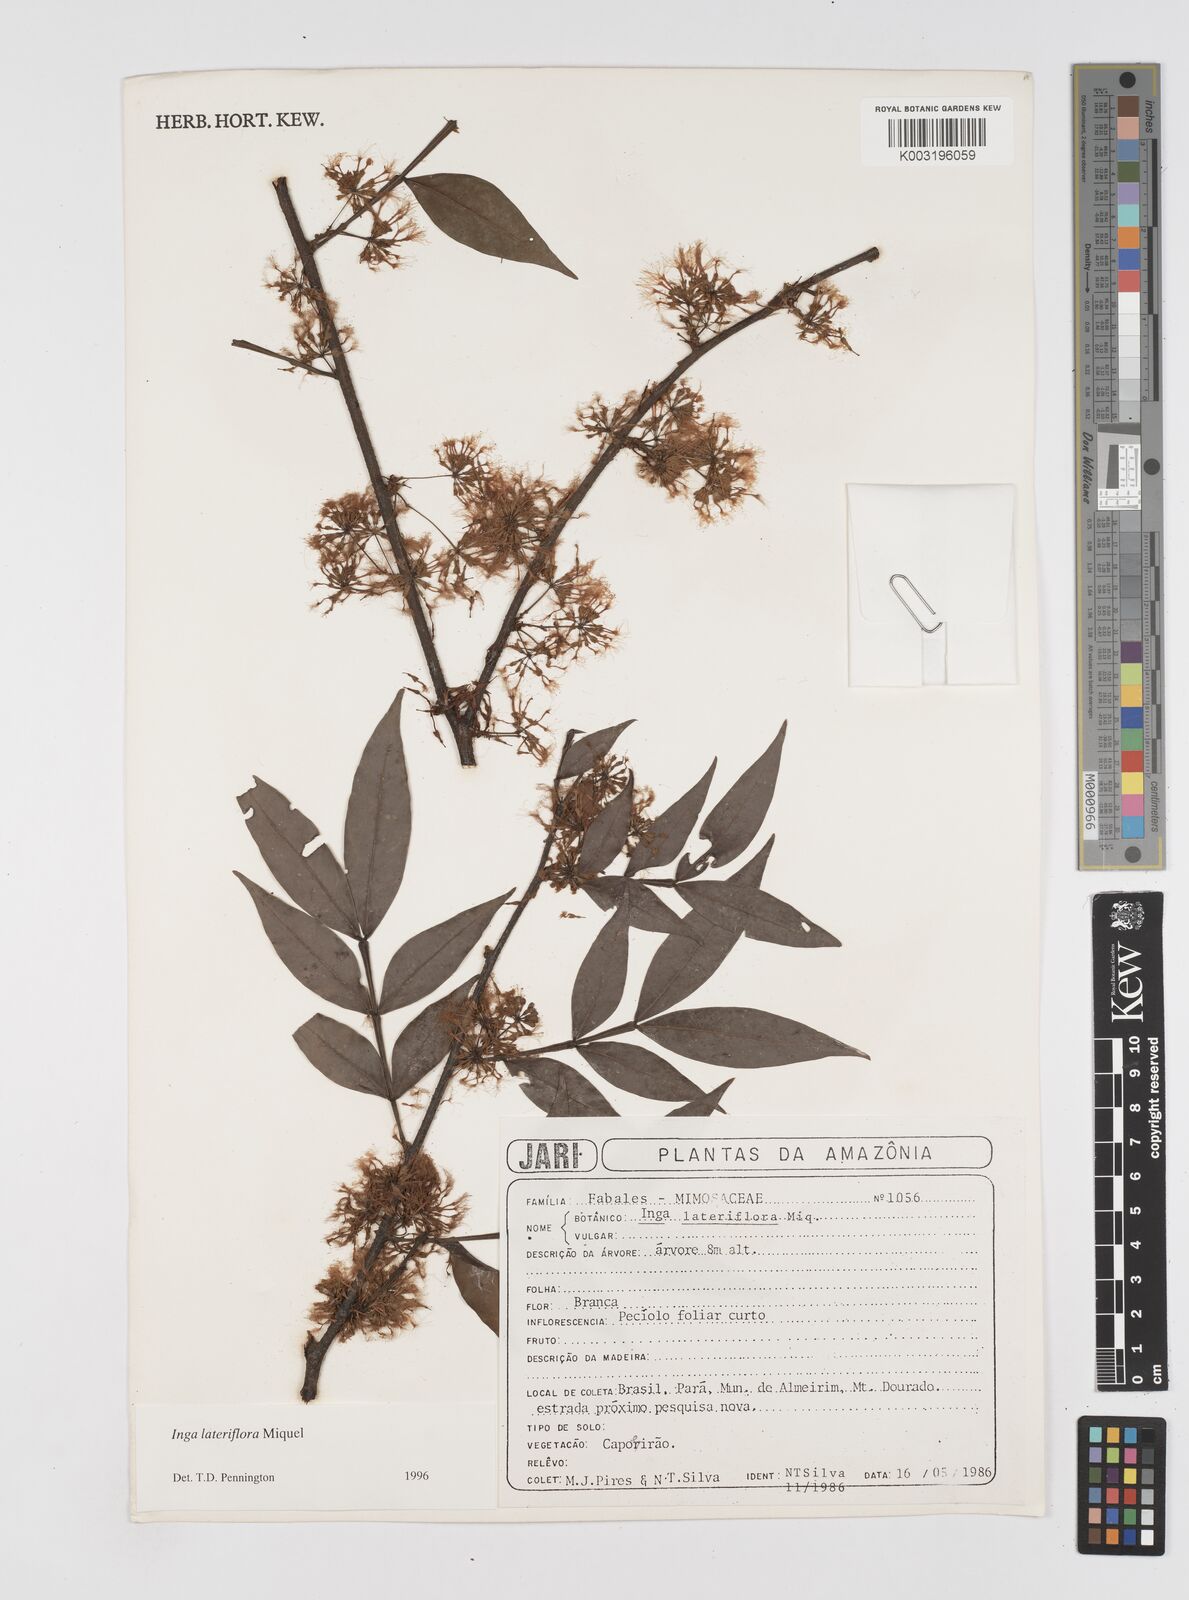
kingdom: Plantae
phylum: Tracheophyta
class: Magnoliopsida
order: Fabales
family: Fabaceae
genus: Inga
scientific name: Inga lateriflora
